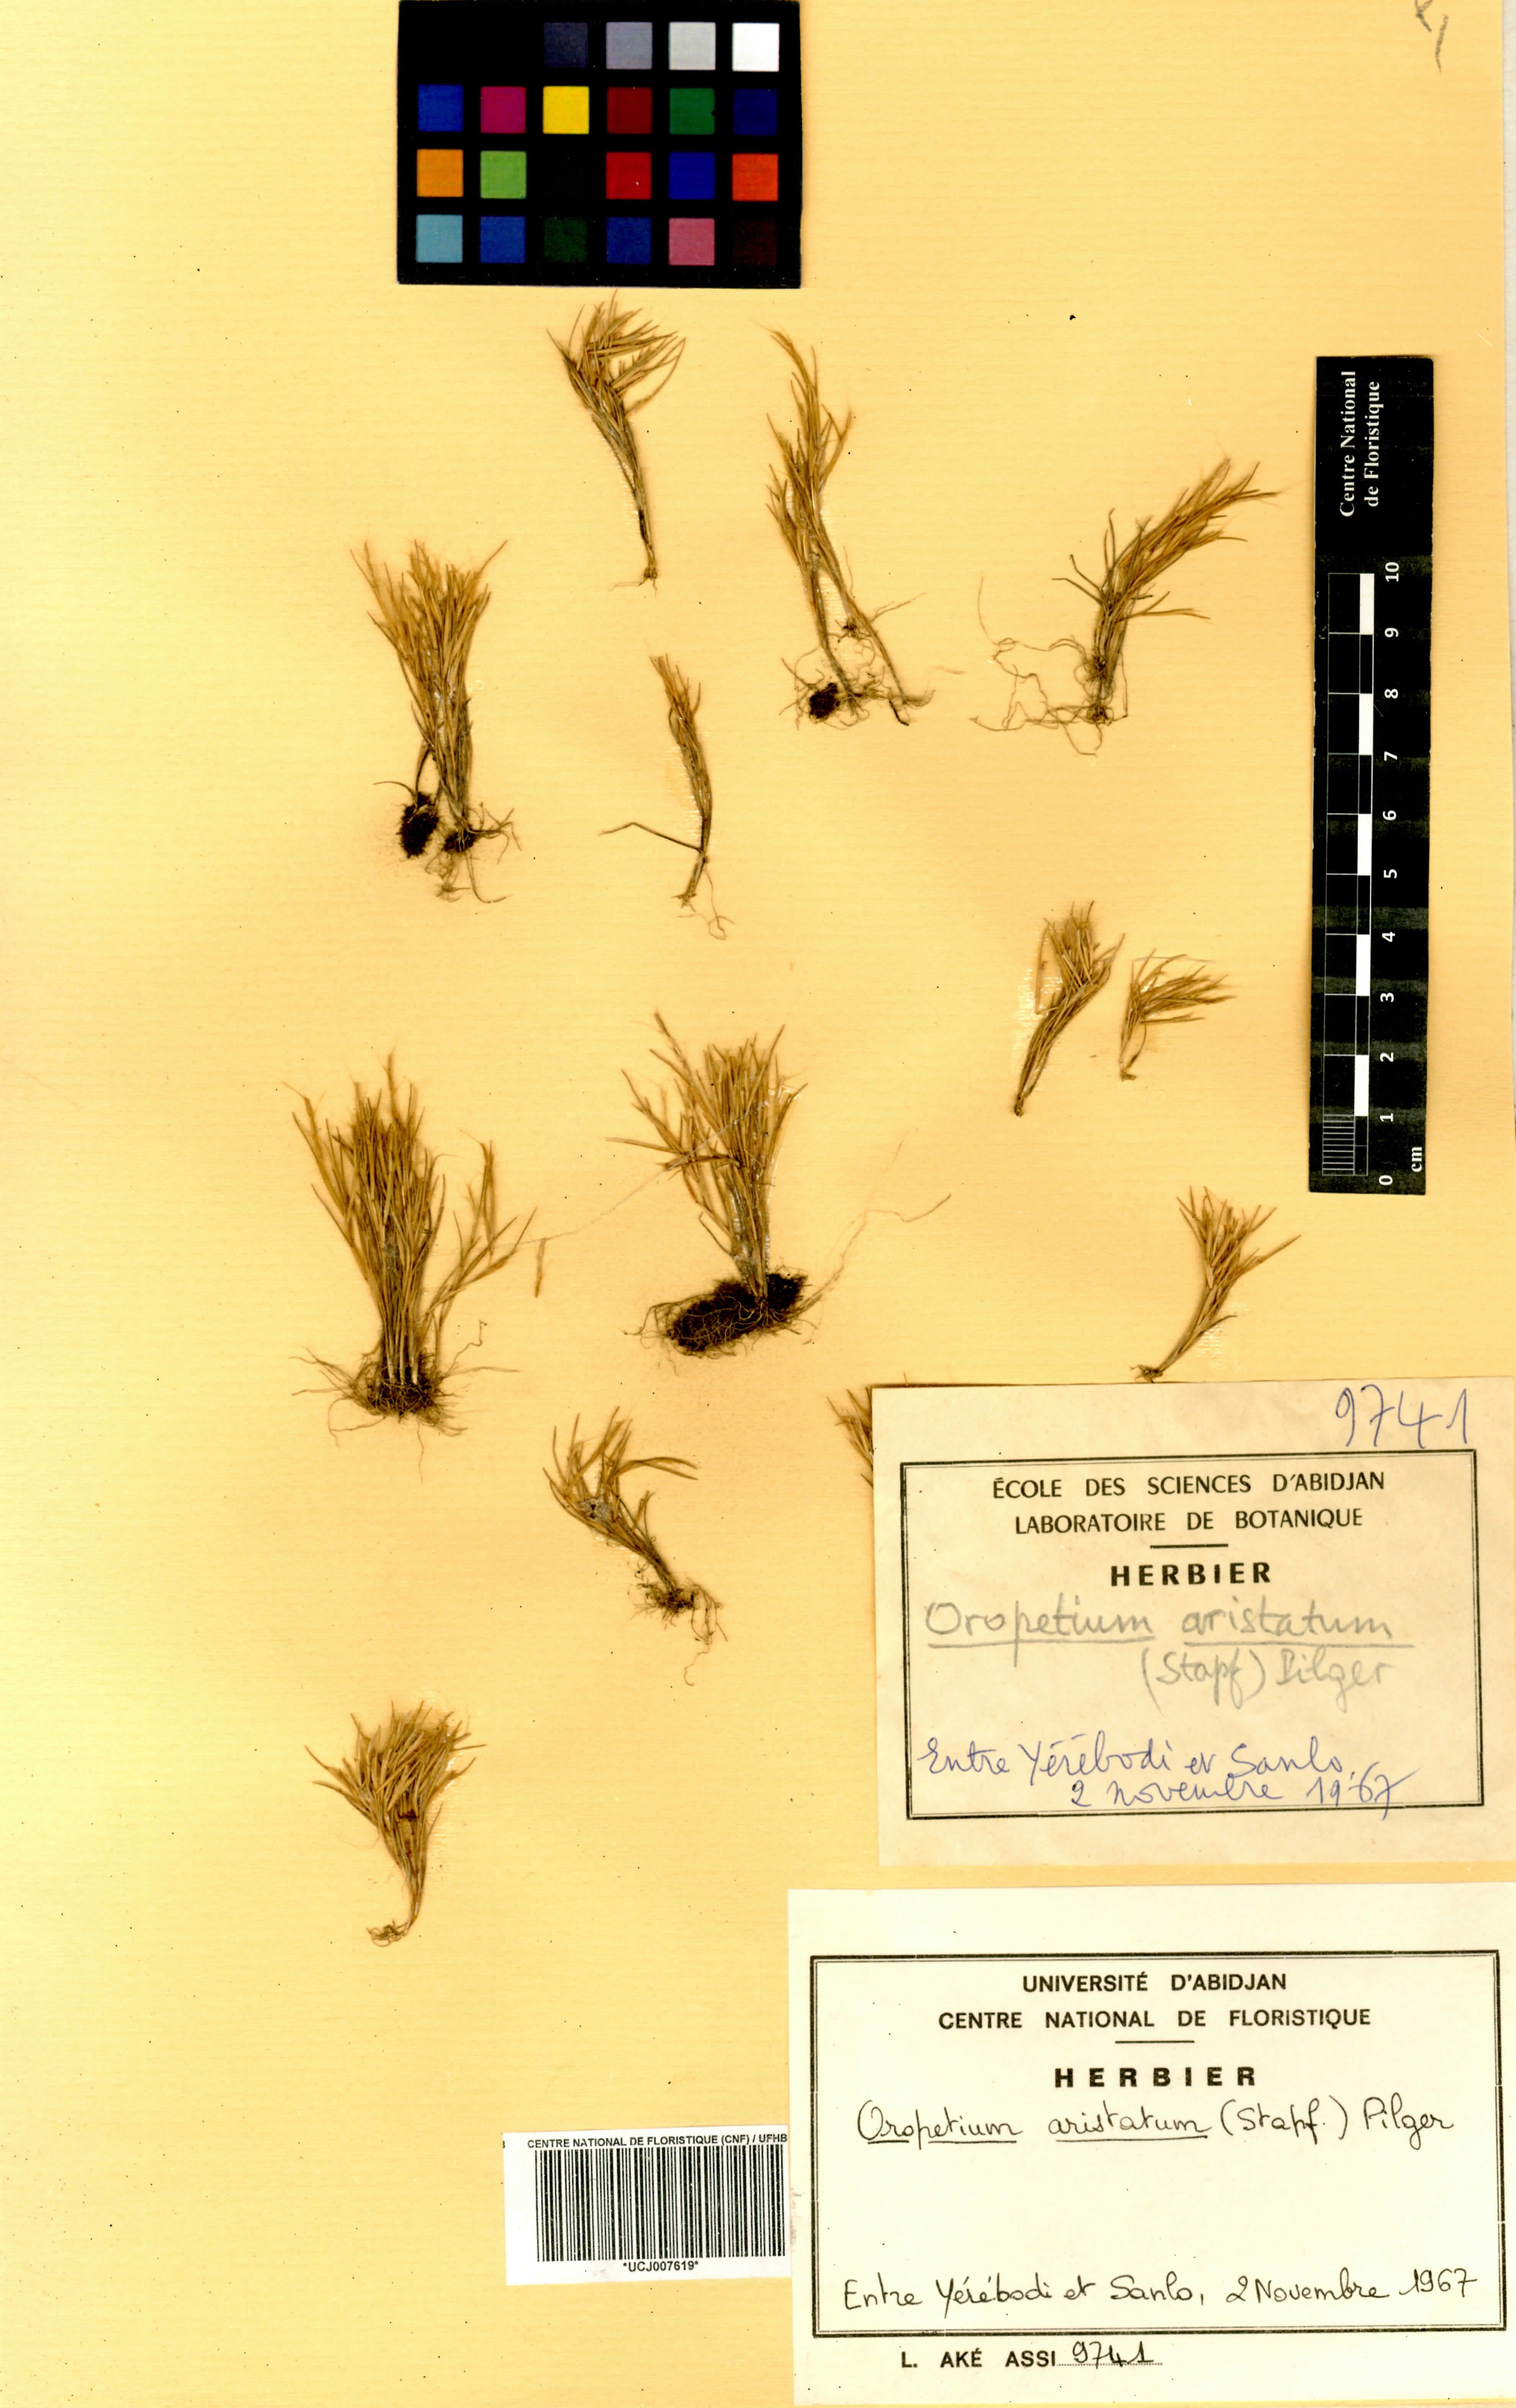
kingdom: Plantae
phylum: Tracheophyta
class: Liliopsida
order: Poales
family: Poaceae
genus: Oropetium
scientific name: Oropetium aristatum
